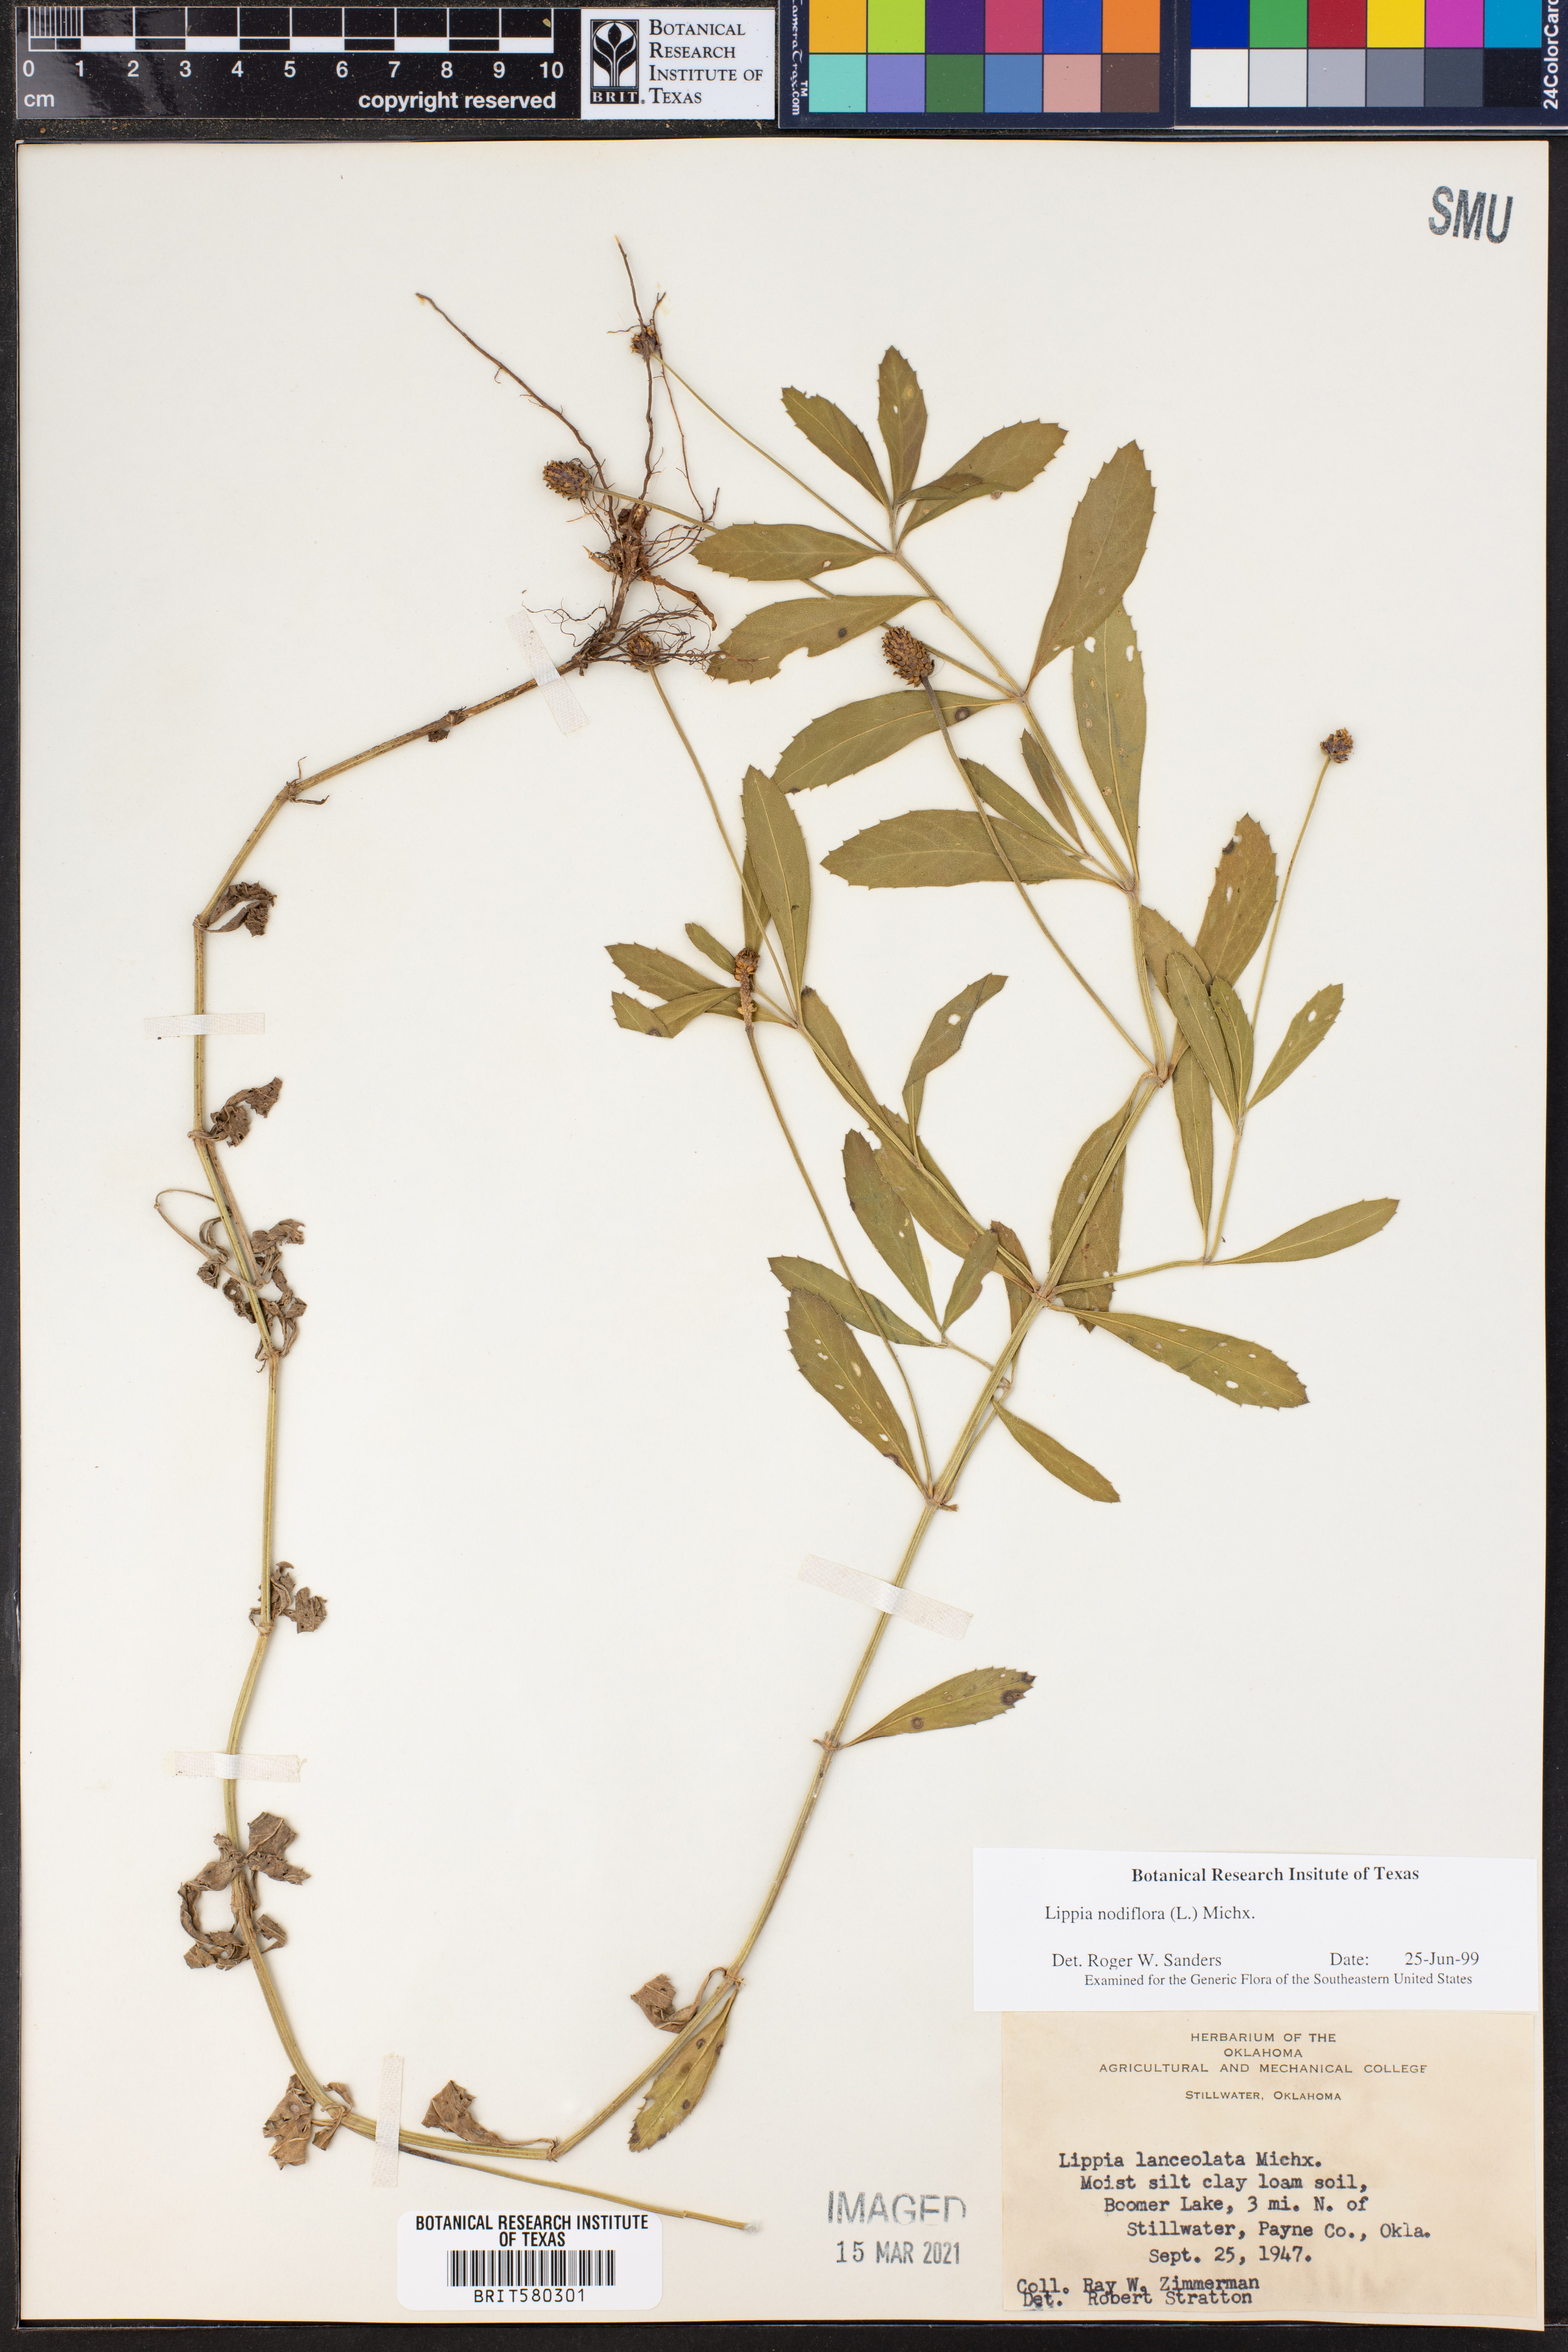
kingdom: Plantae
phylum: Tracheophyta
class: Magnoliopsida
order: Lamiales
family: Verbenaceae
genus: Phyla
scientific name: Phyla nodiflora
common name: Frogfruit
